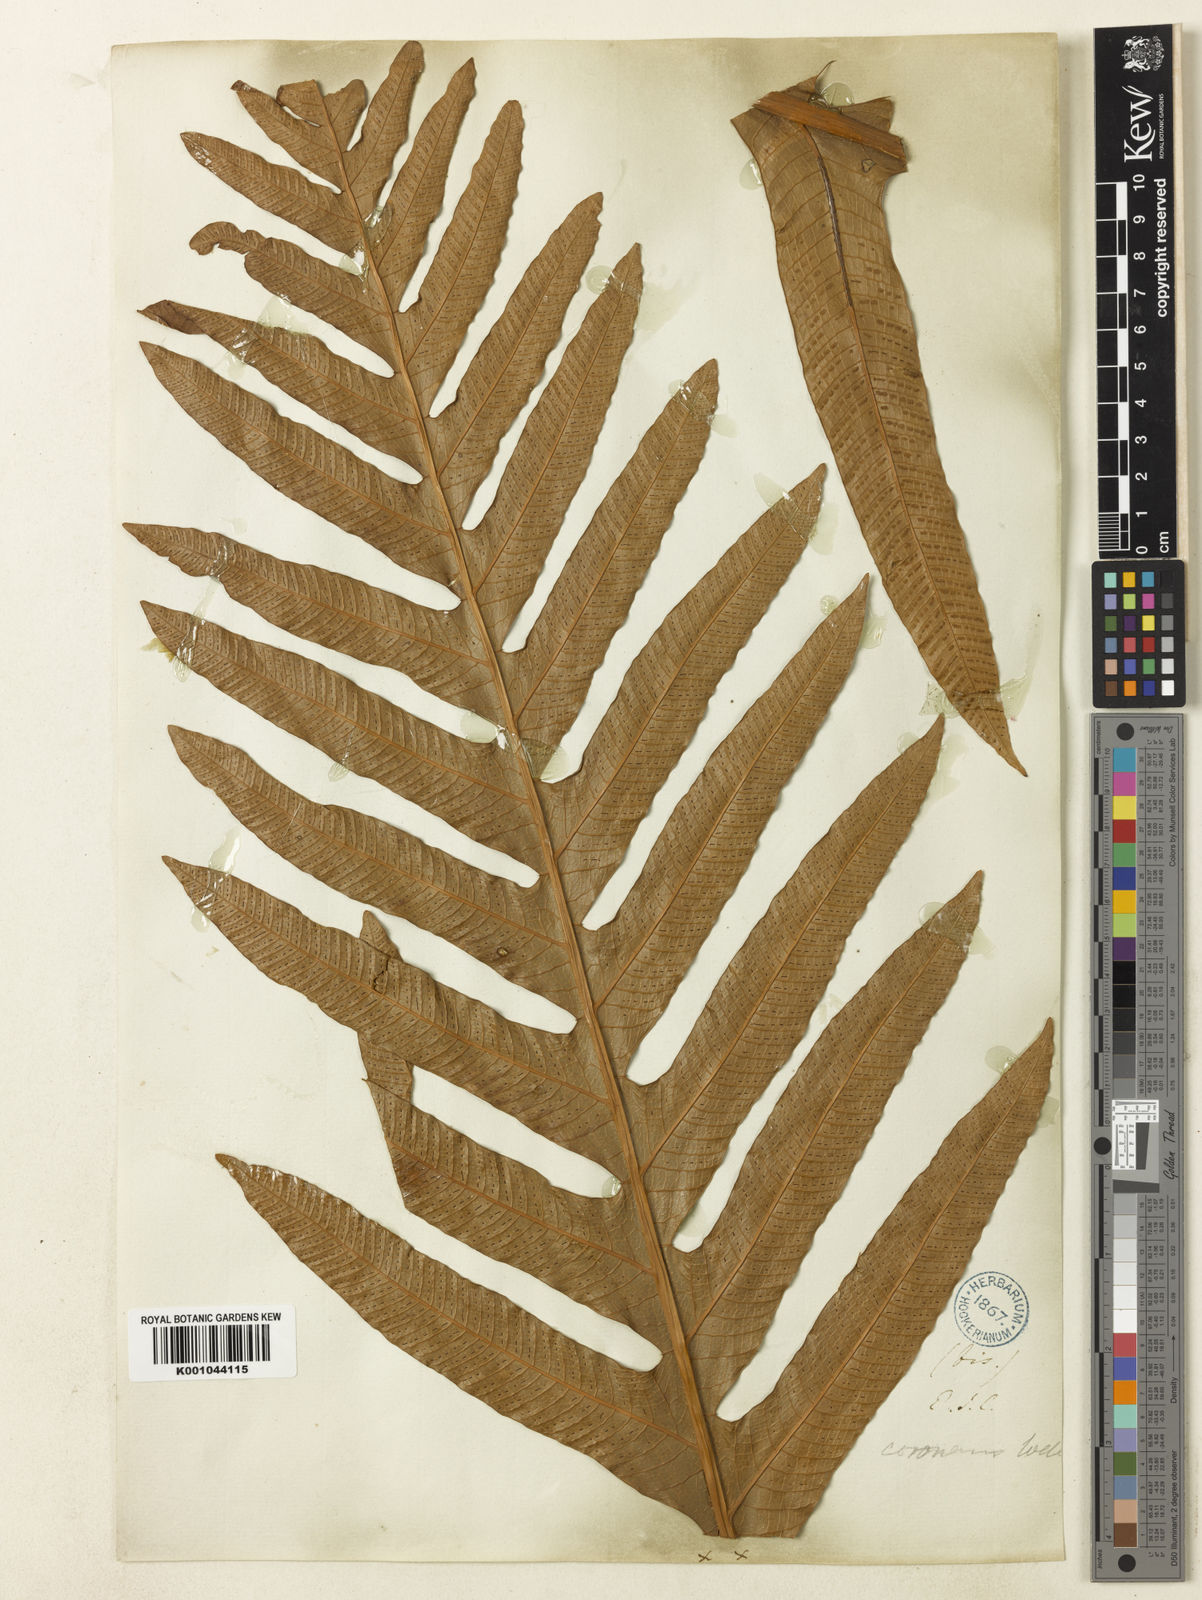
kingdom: Plantae
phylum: Tracheophyta
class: Polypodiopsida
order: Polypodiales
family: Polypodiaceae
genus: Drynaria
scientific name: Drynaria coronans
